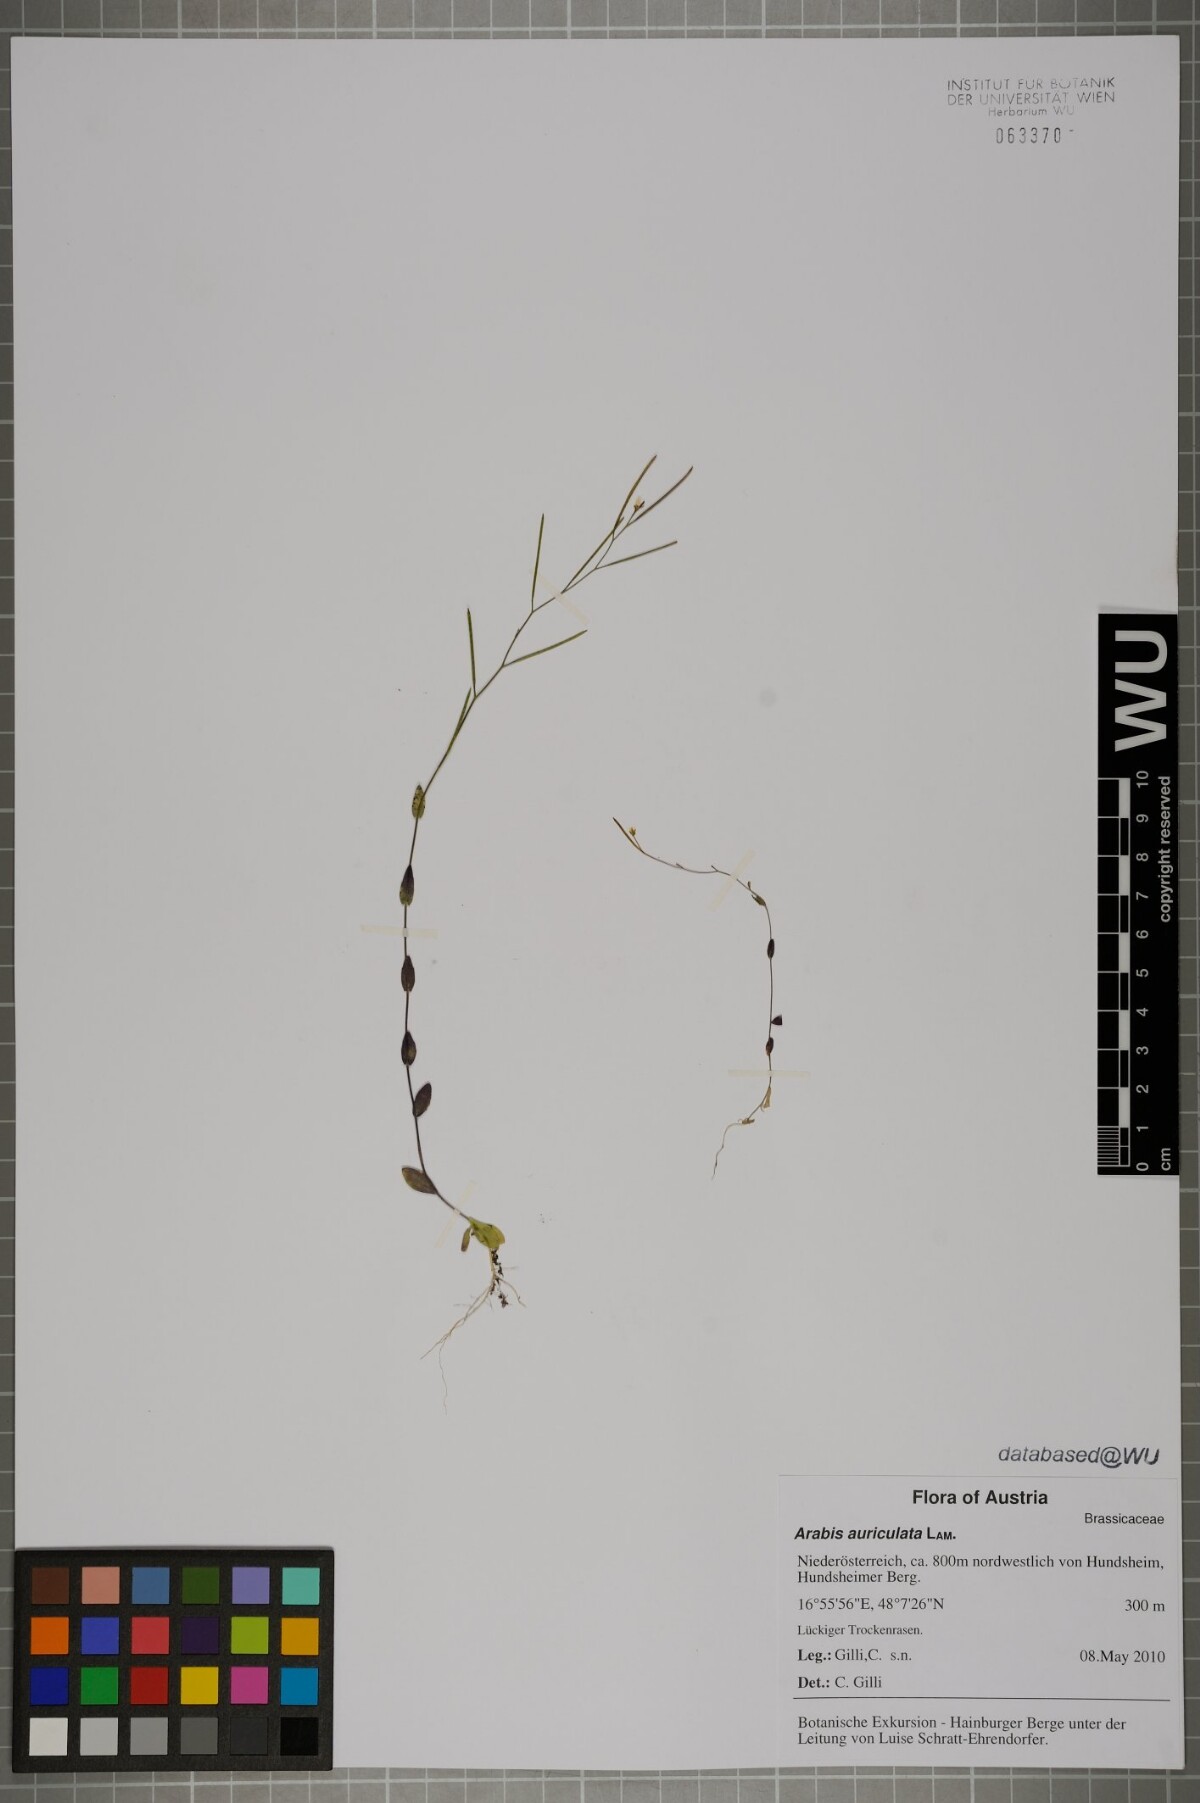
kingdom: Plantae
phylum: Tracheophyta
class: Magnoliopsida
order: Brassicales
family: Brassicaceae
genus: Arabis
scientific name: Arabis auriculata
